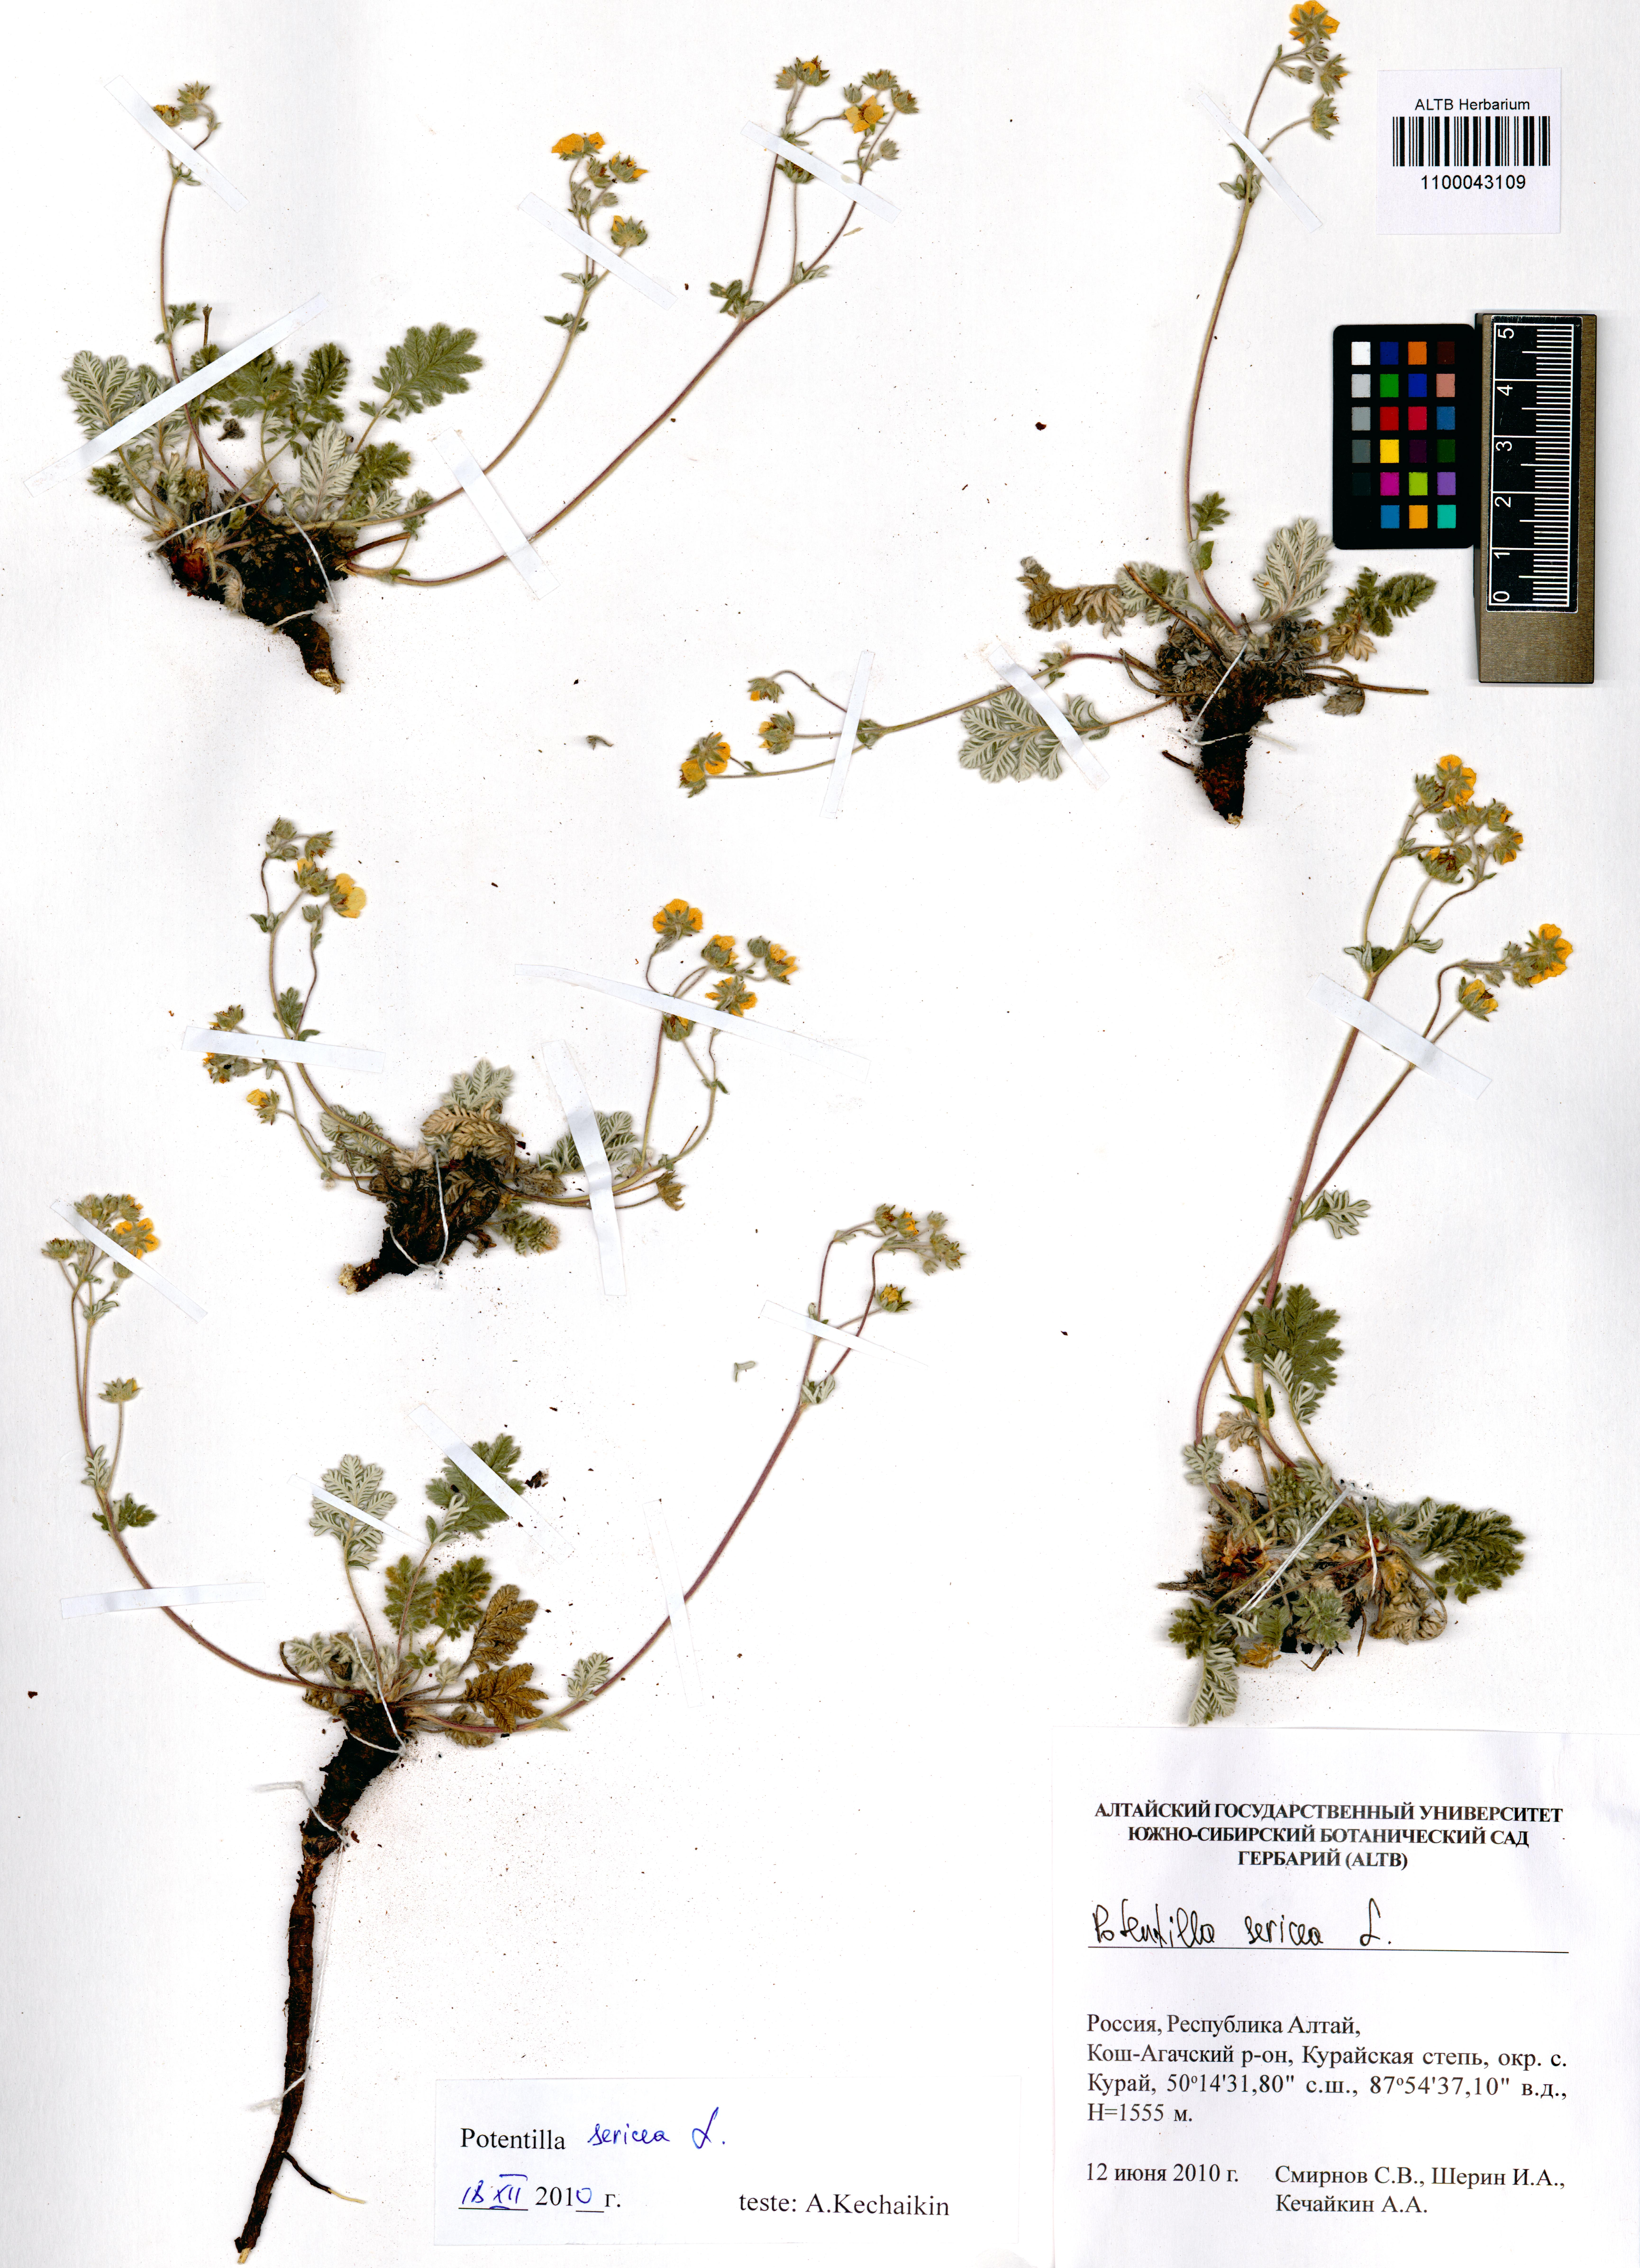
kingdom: Plantae
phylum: Tracheophyta
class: Magnoliopsida
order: Rosales
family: Rosaceae
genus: Potentilla
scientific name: Potentilla sericea
